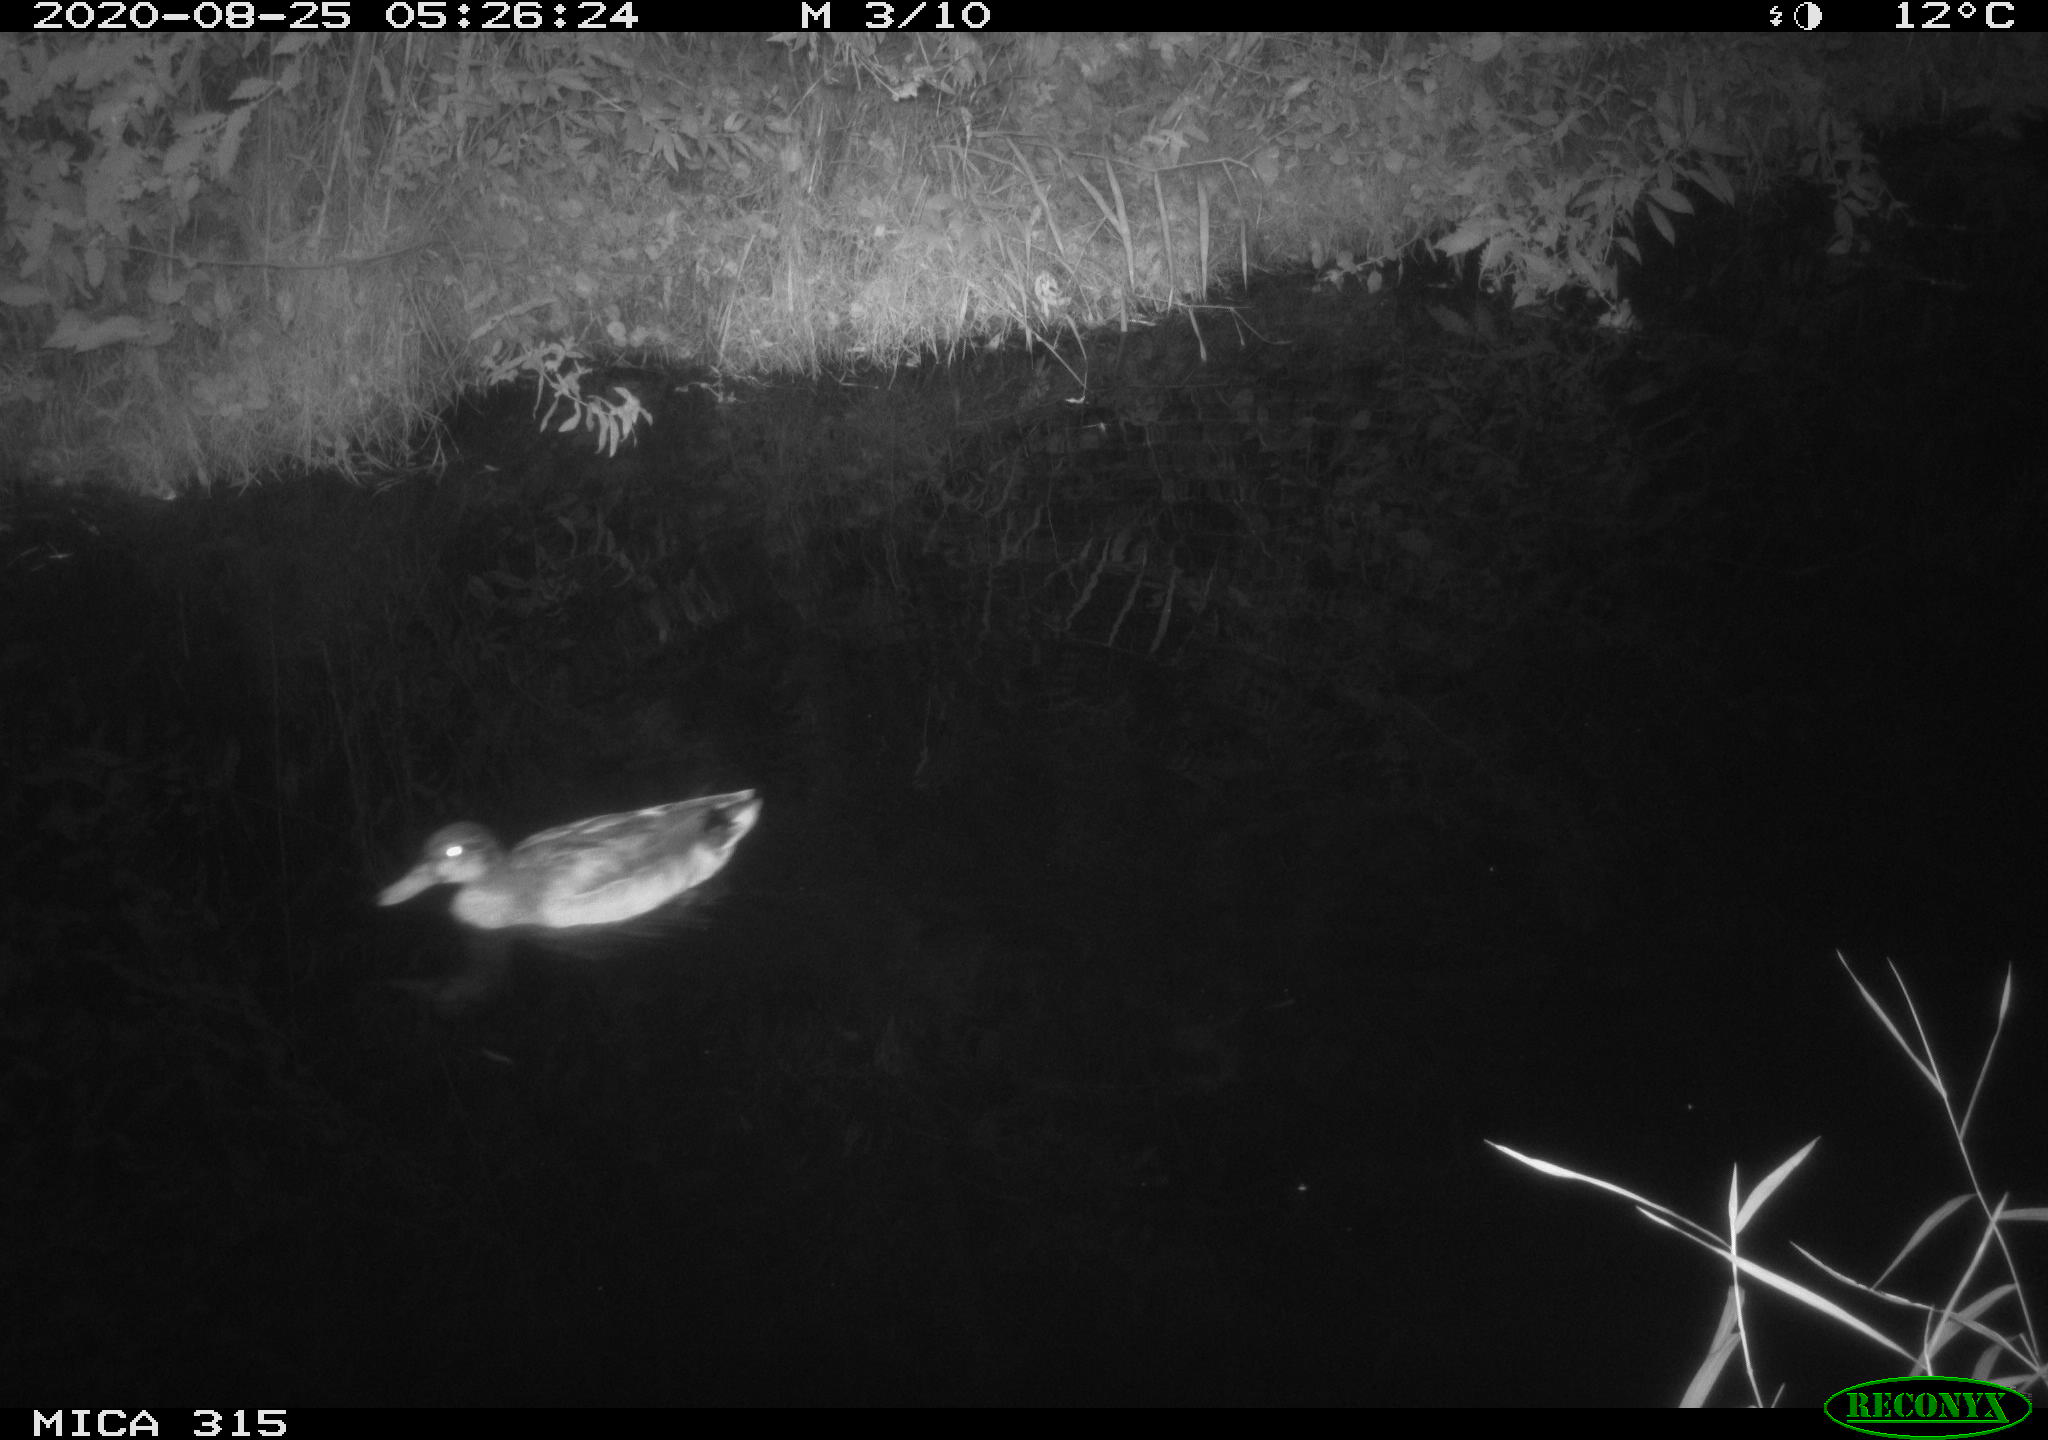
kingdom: Animalia
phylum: Chordata
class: Aves
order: Anseriformes
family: Anatidae
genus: Anas
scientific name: Anas platyrhynchos
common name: Mallard
